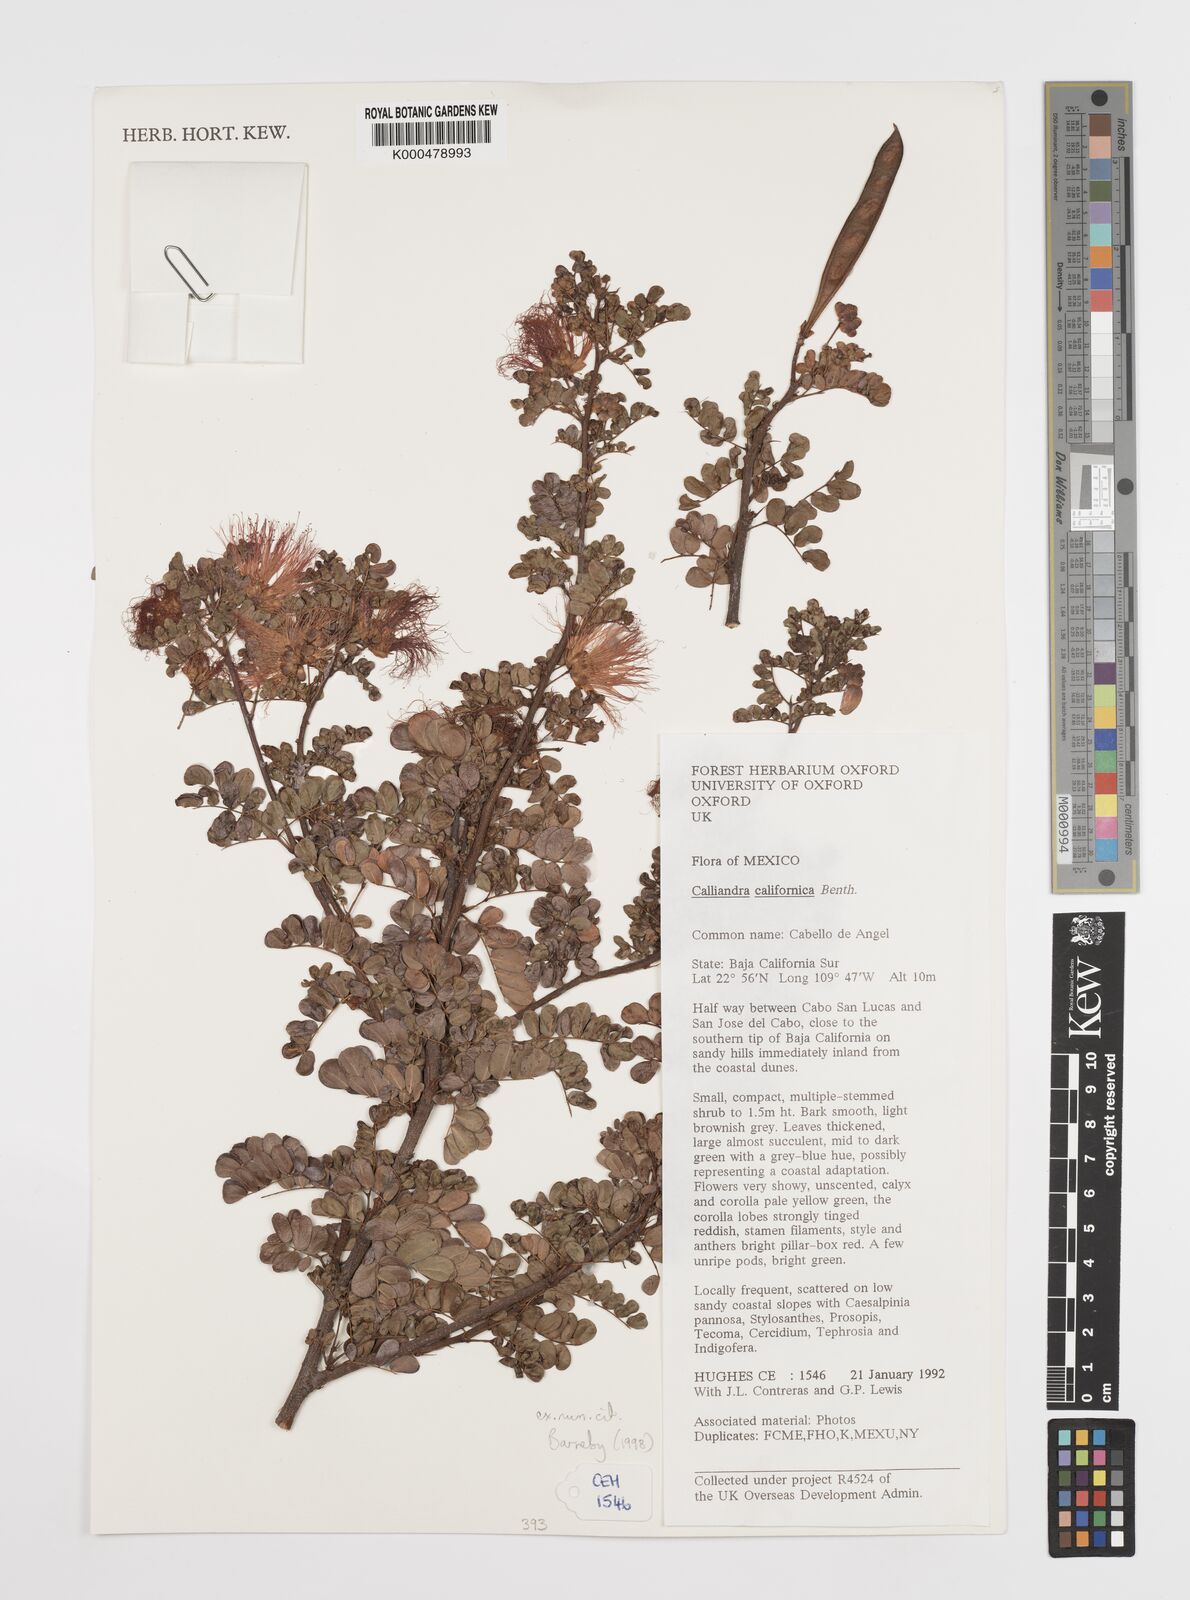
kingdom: Plantae
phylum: Tracheophyta
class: Magnoliopsida
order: Fabales
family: Fabaceae
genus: Calliandra
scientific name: Calliandra californica
